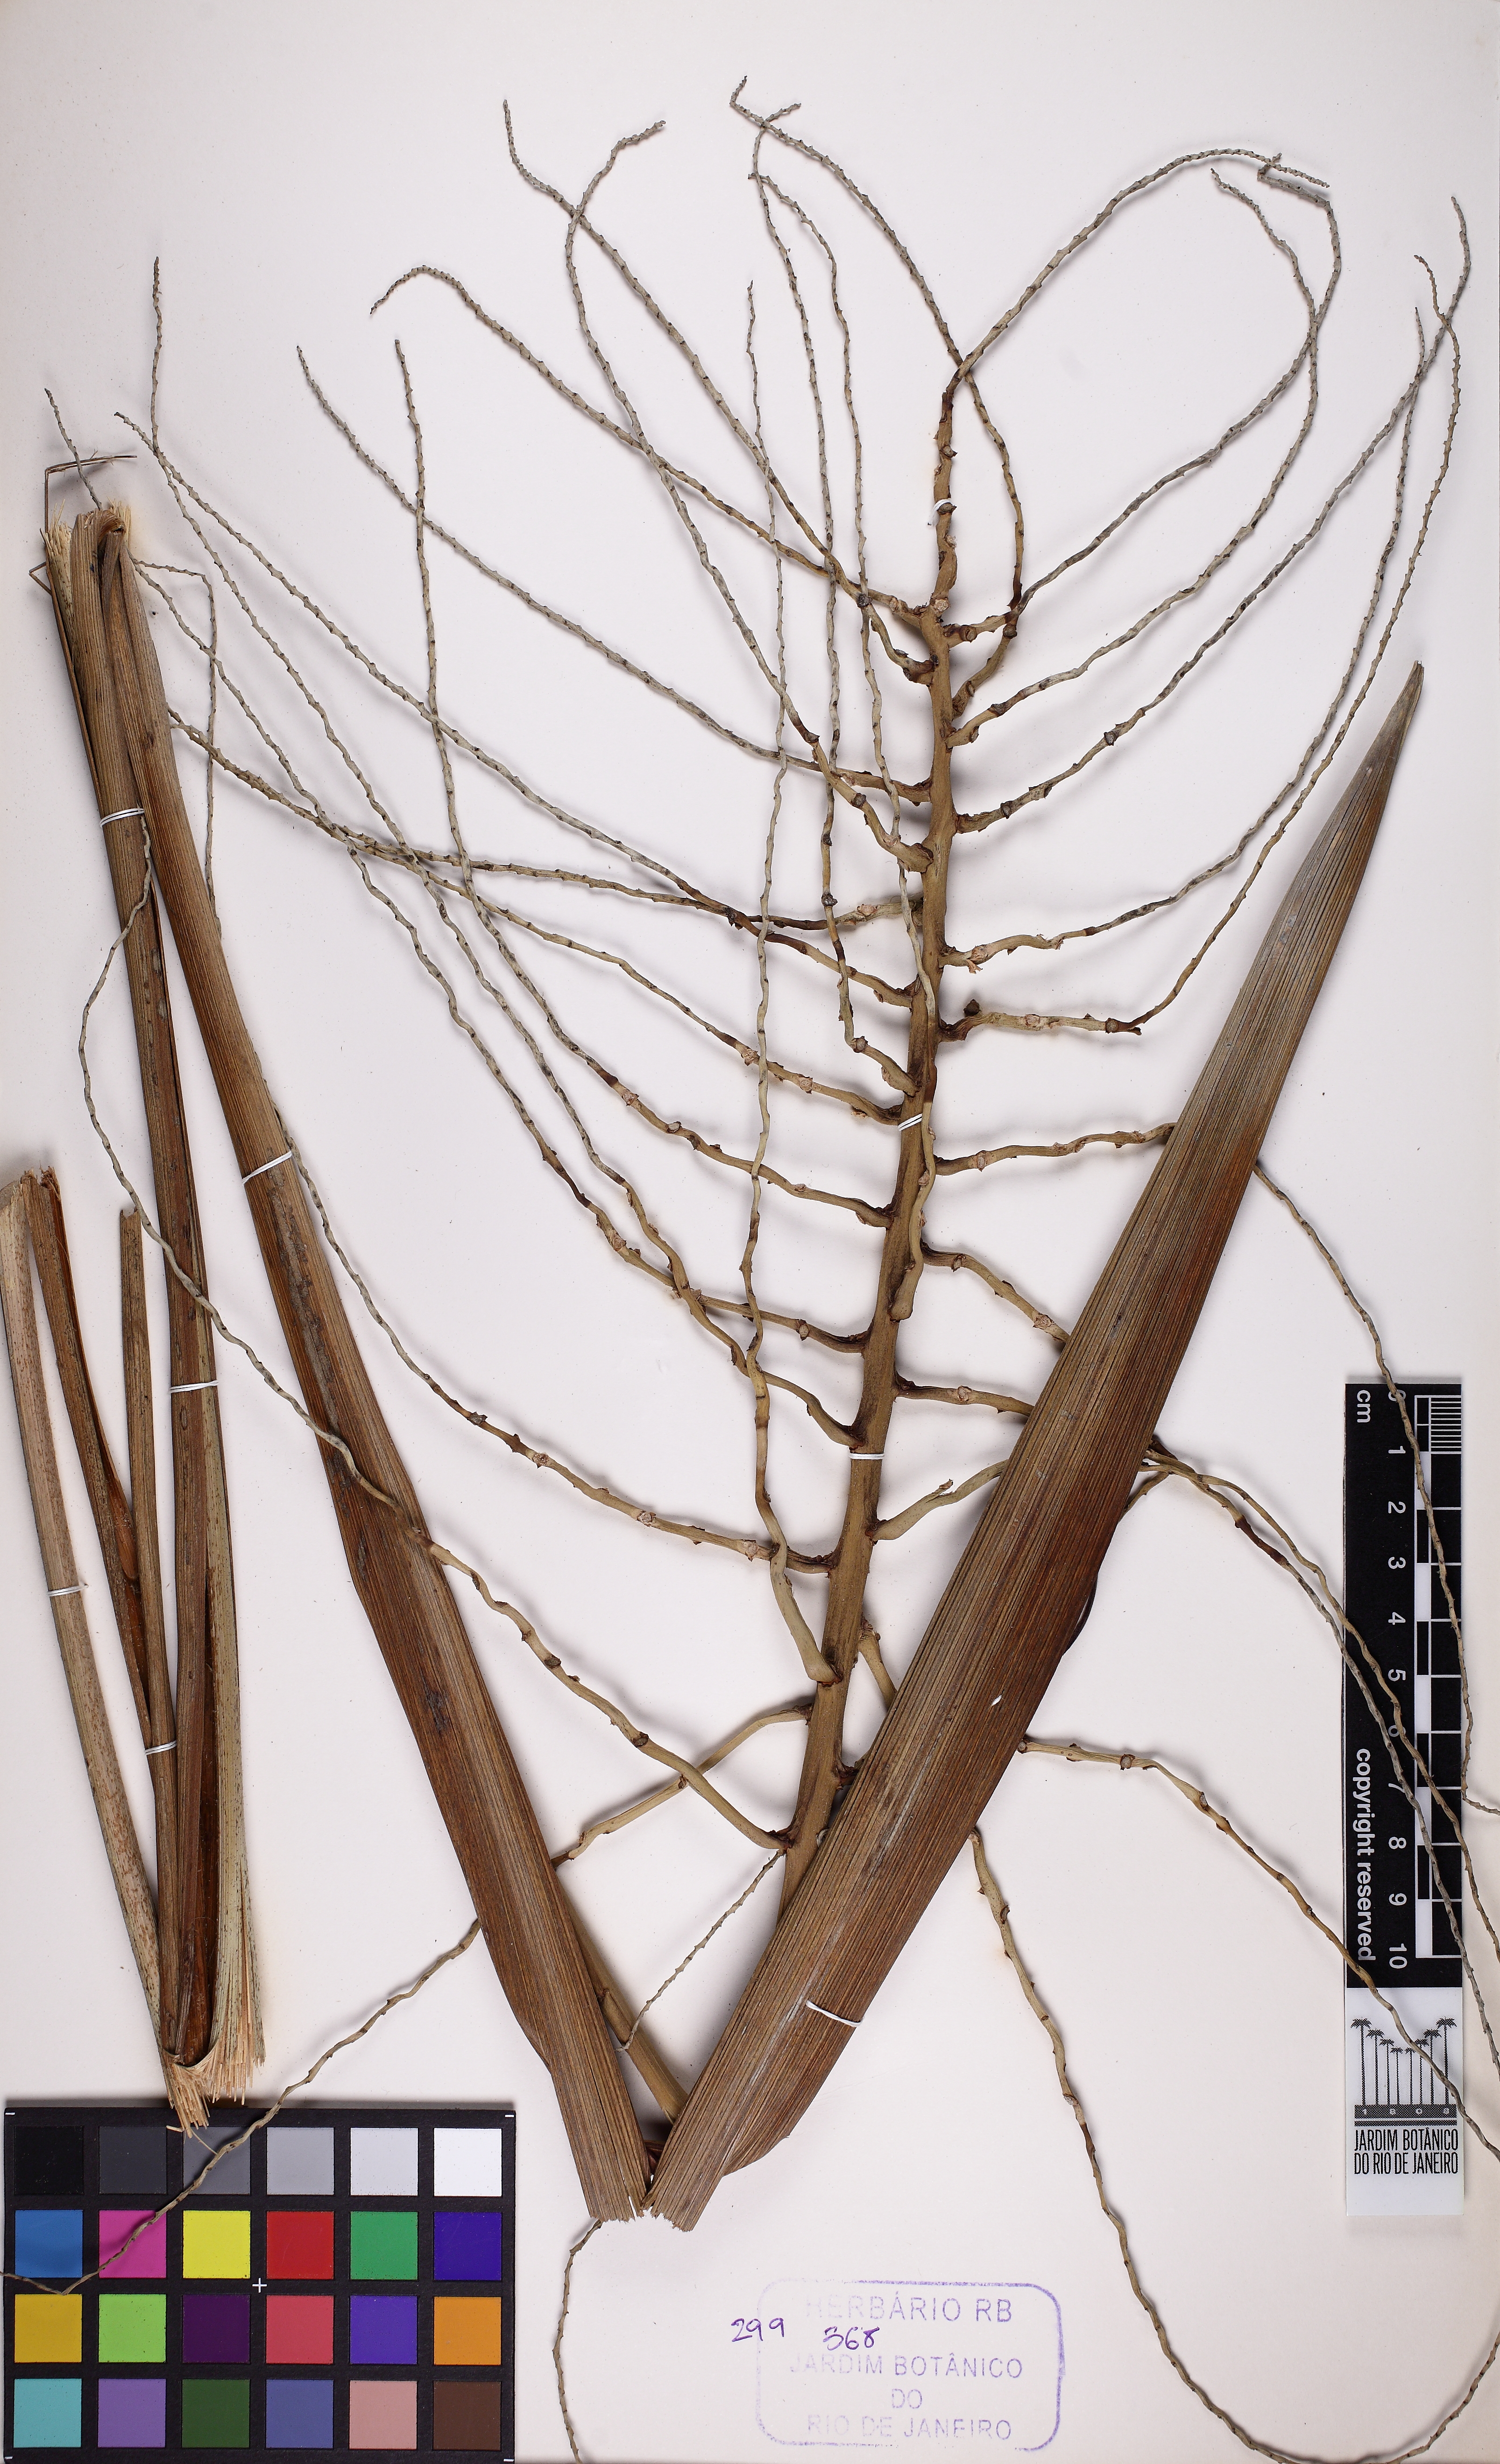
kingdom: Plantae
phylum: Tracheophyta
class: Liliopsida
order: Arecales
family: Arecaceae
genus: Syagrus
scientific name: Syagrus schizophylla
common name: Arikury palm
